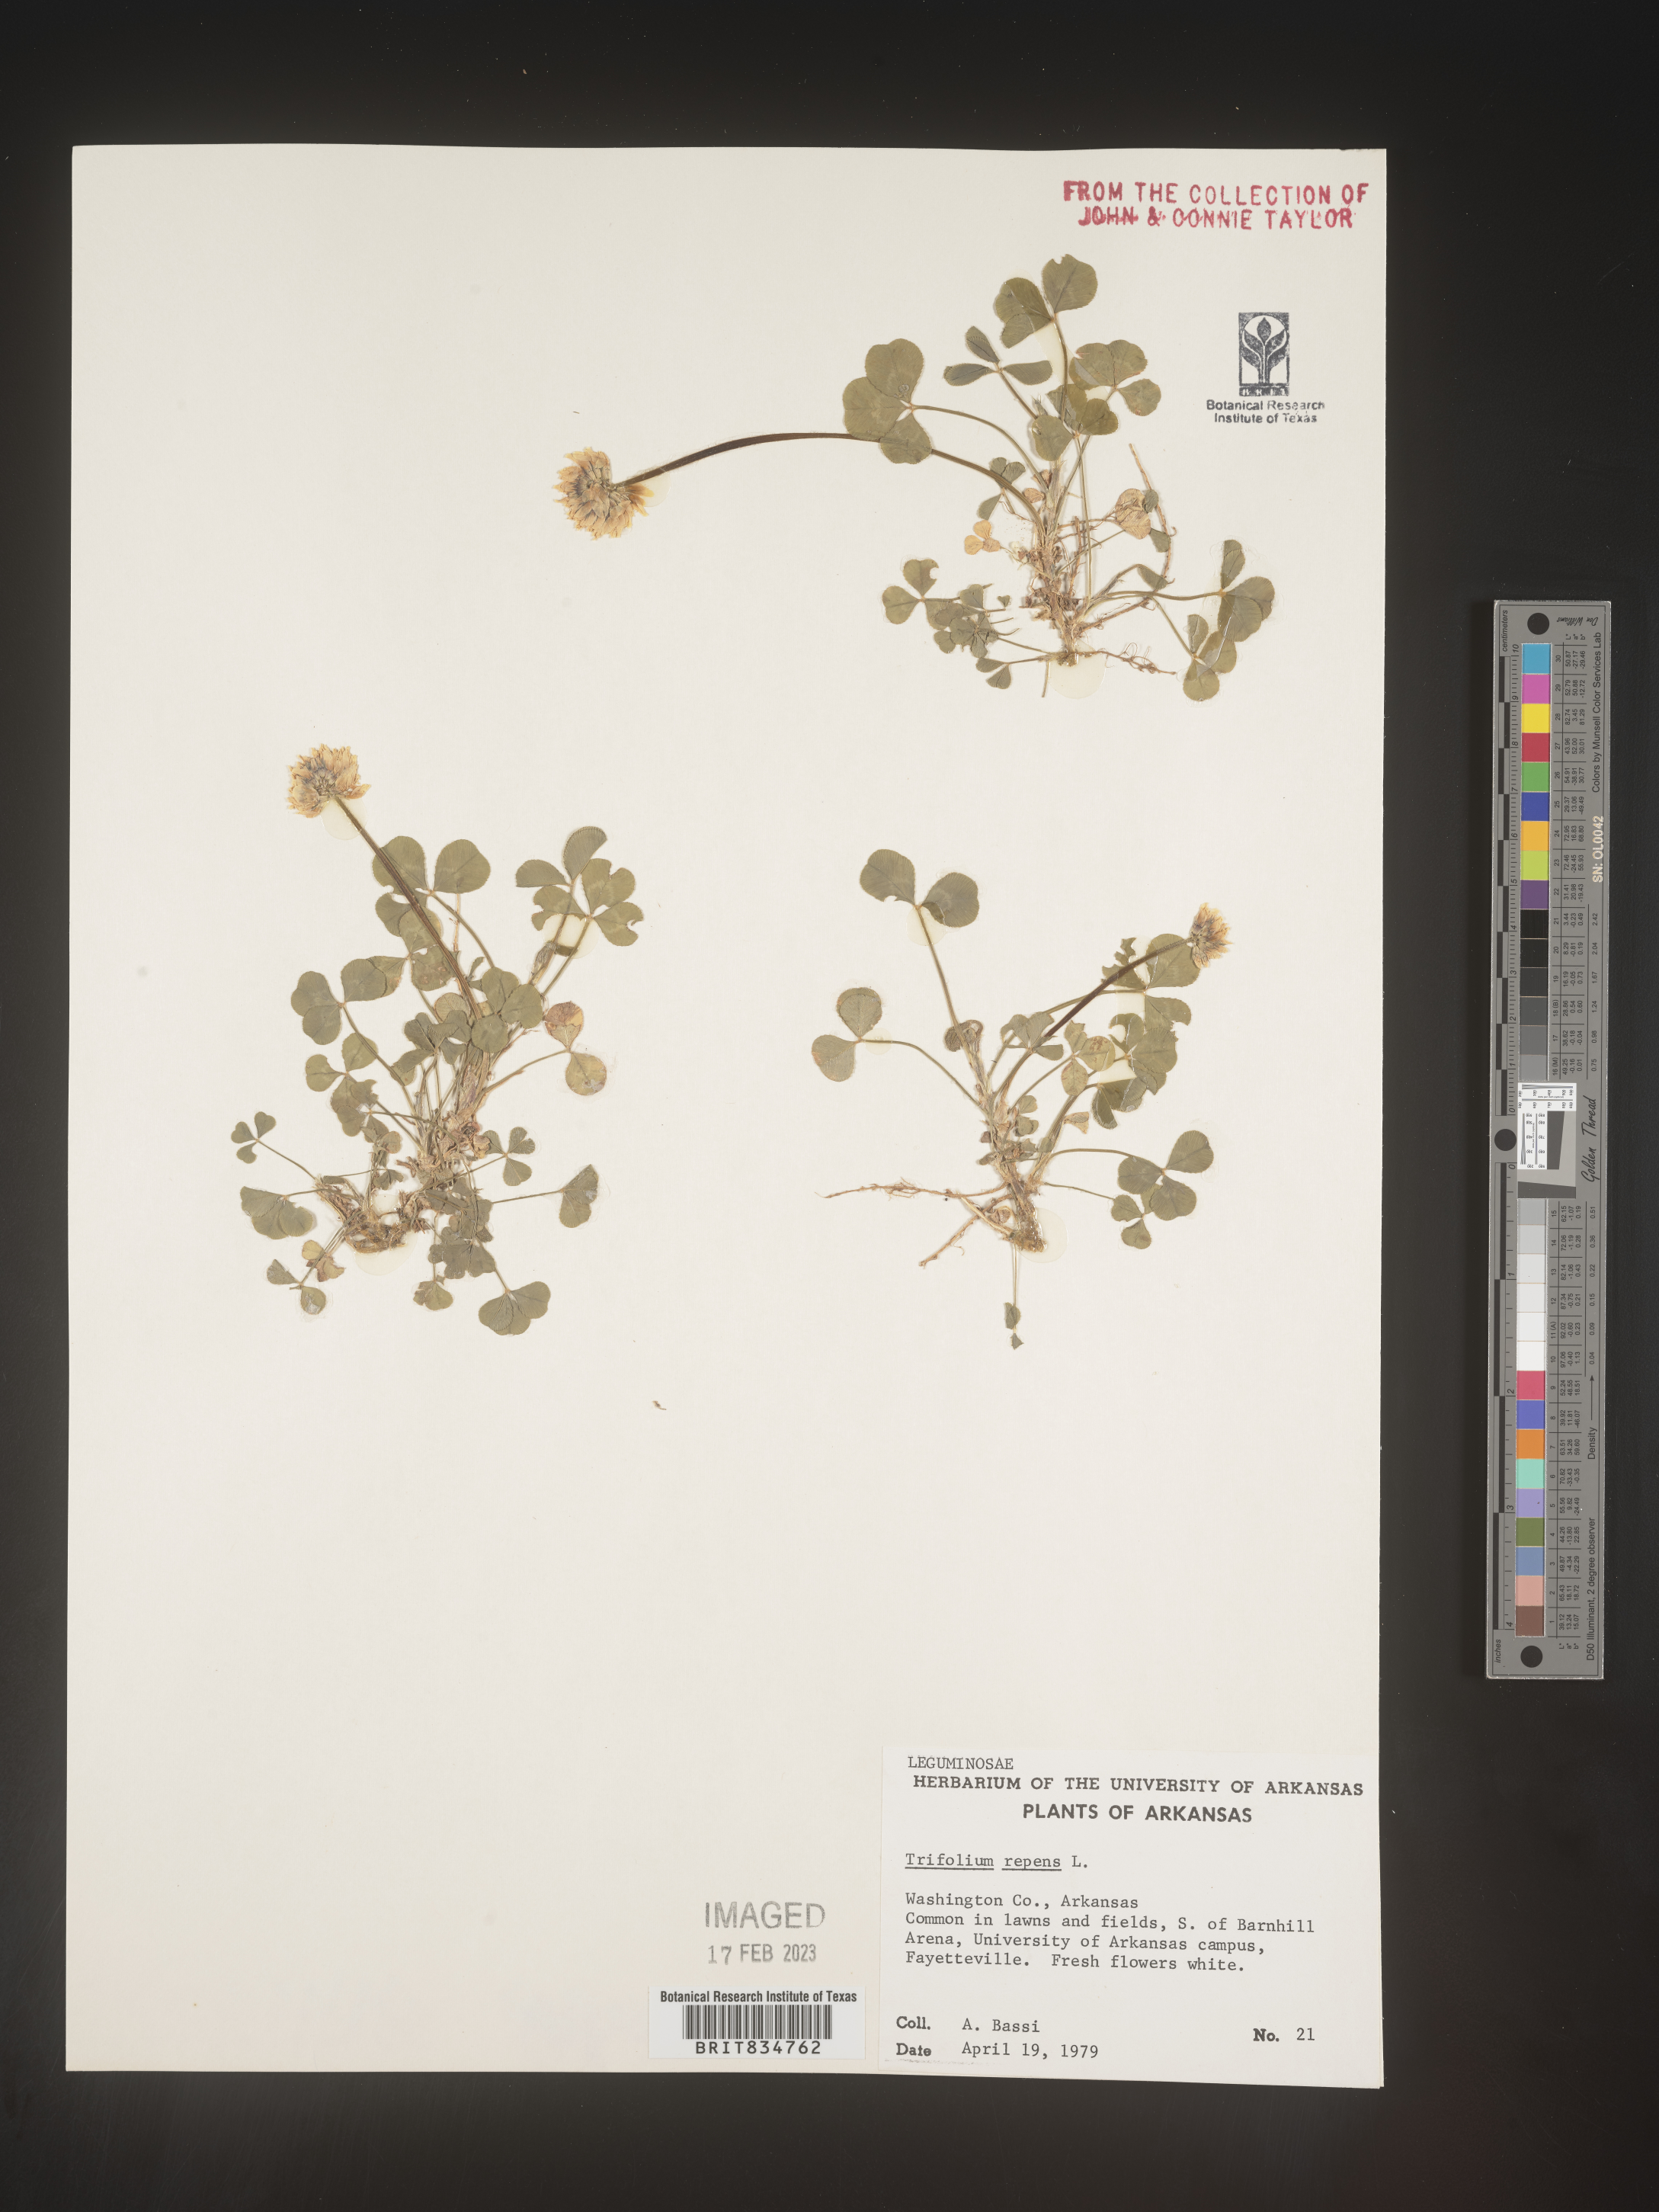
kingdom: Plantae
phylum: Tracheophyta
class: Magnoliopsida
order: Fabales
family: Fabaceae
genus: Trifolium
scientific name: Trifolium repens
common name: White clover
